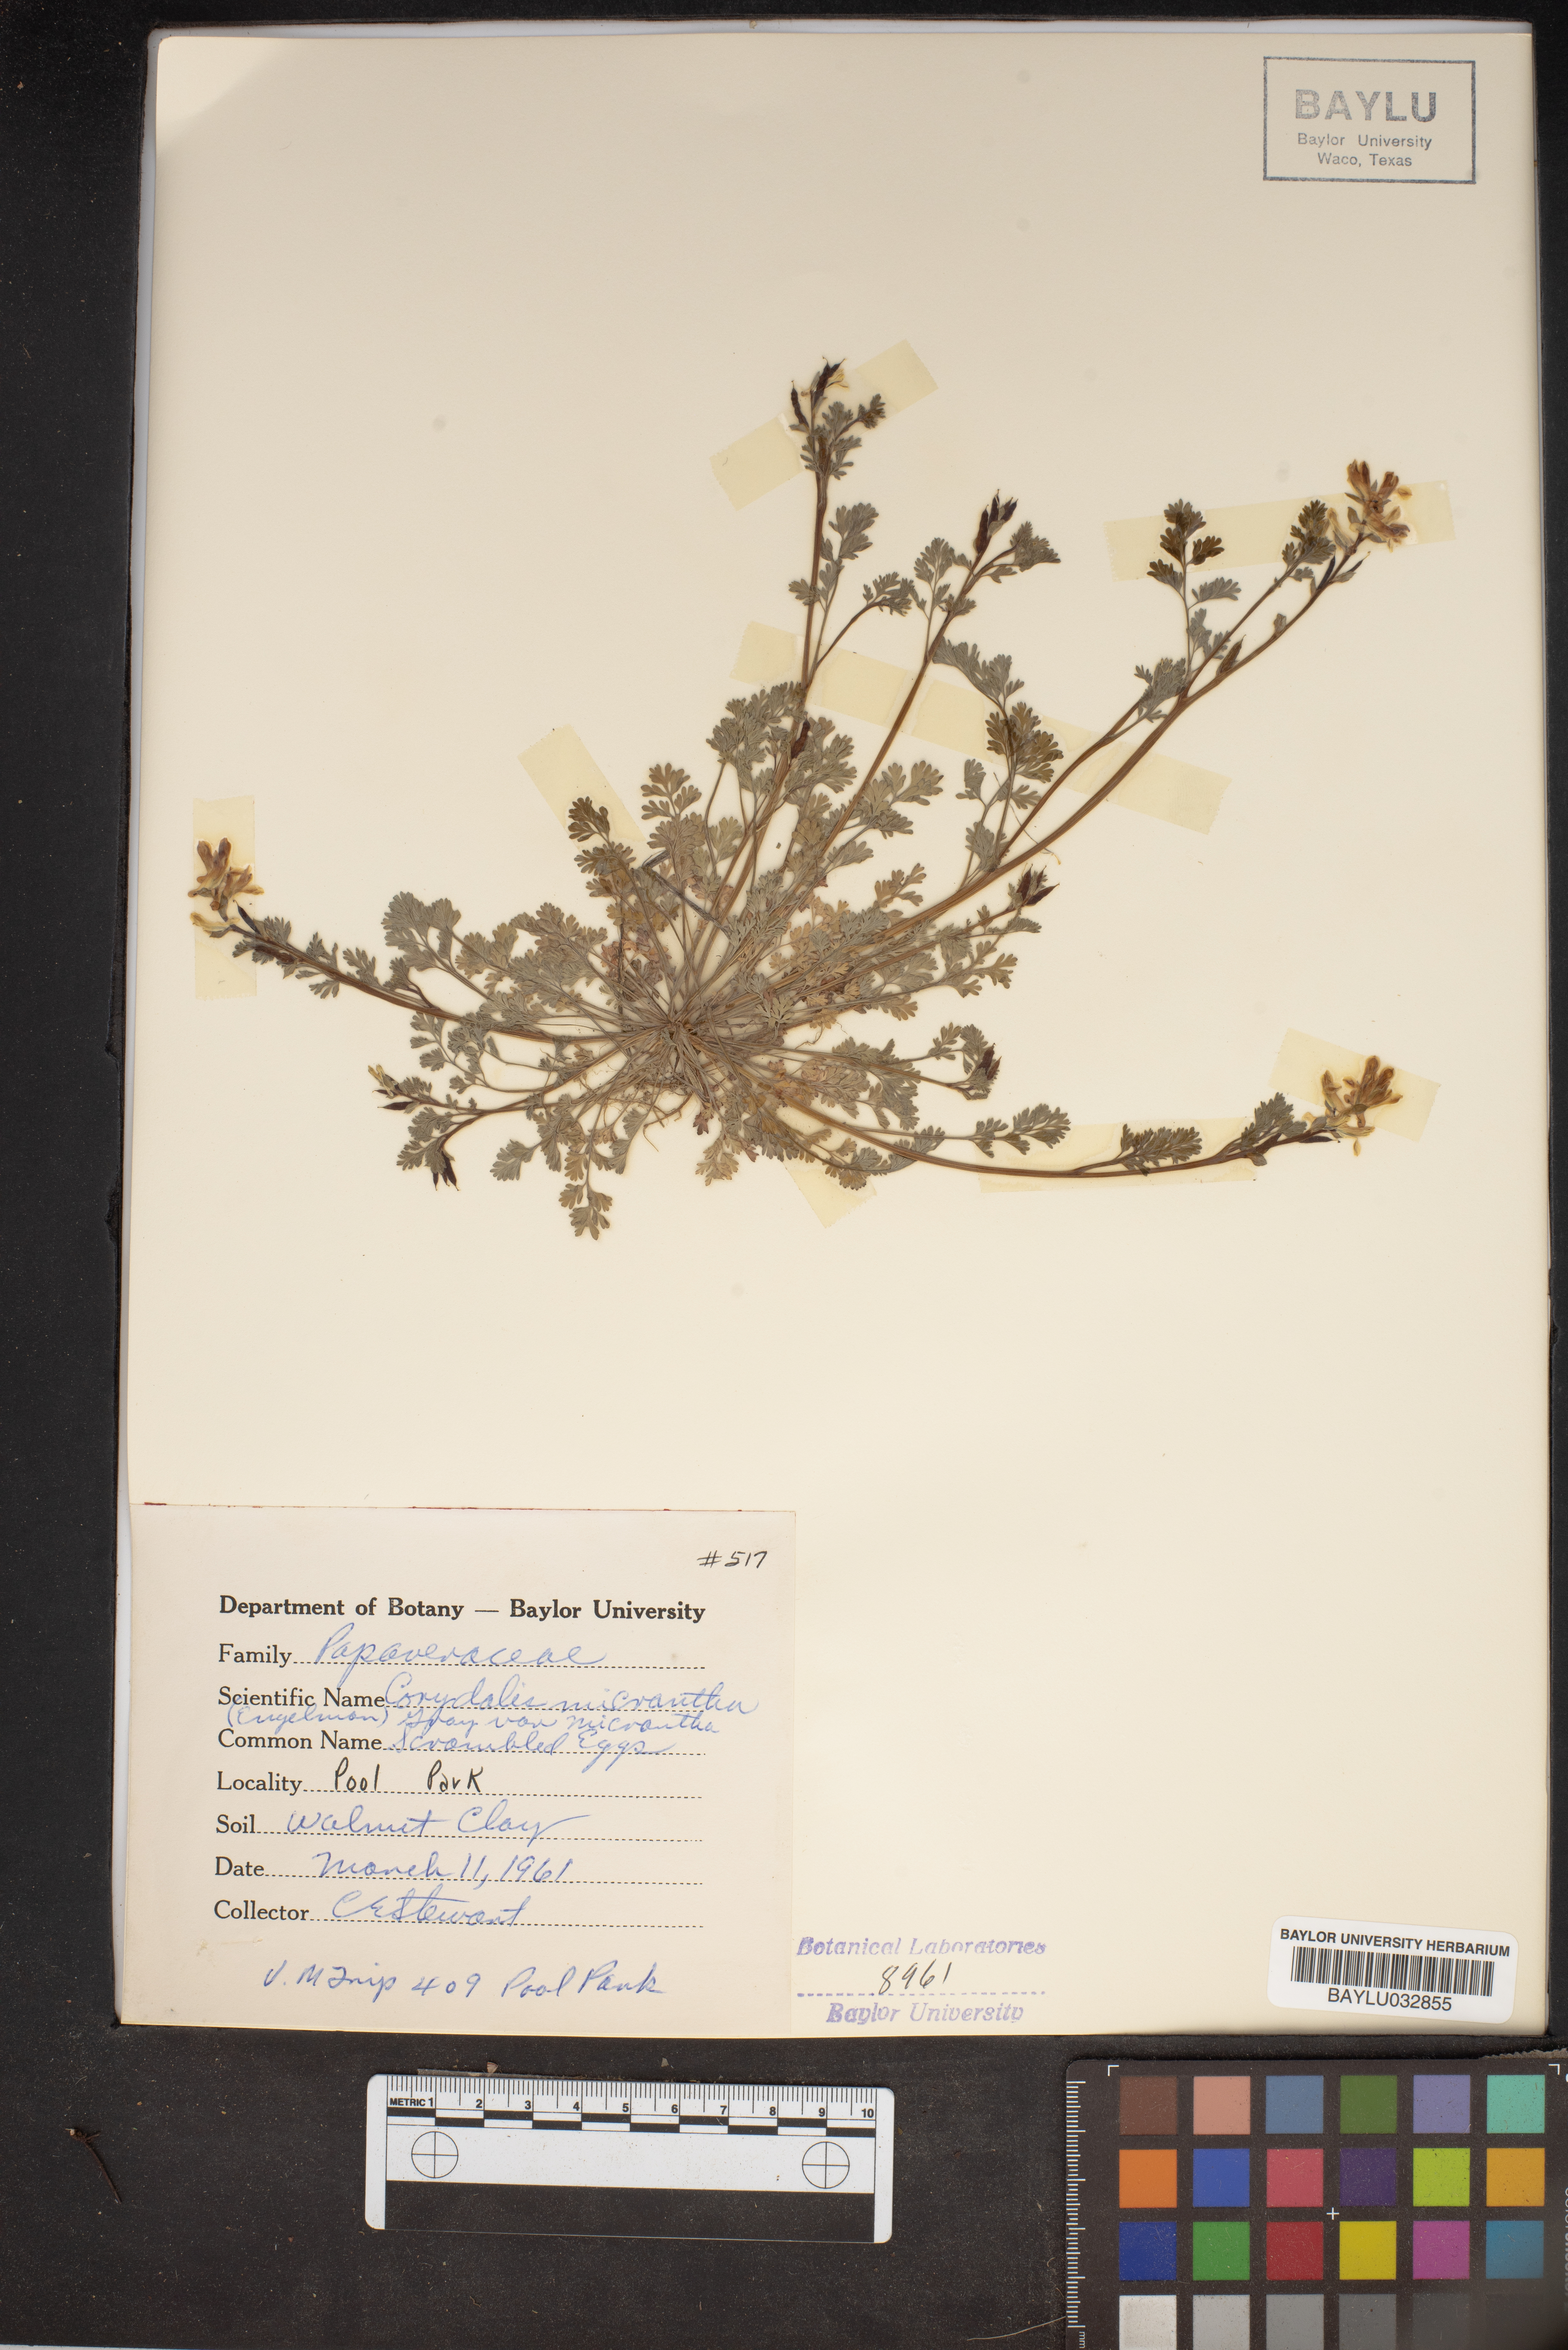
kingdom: Plantae
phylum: Tracheophyta
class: Magnoliopsida
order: Ranunculales
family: Papaveraceae
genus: Corydalis
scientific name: Corydalis micrantha
